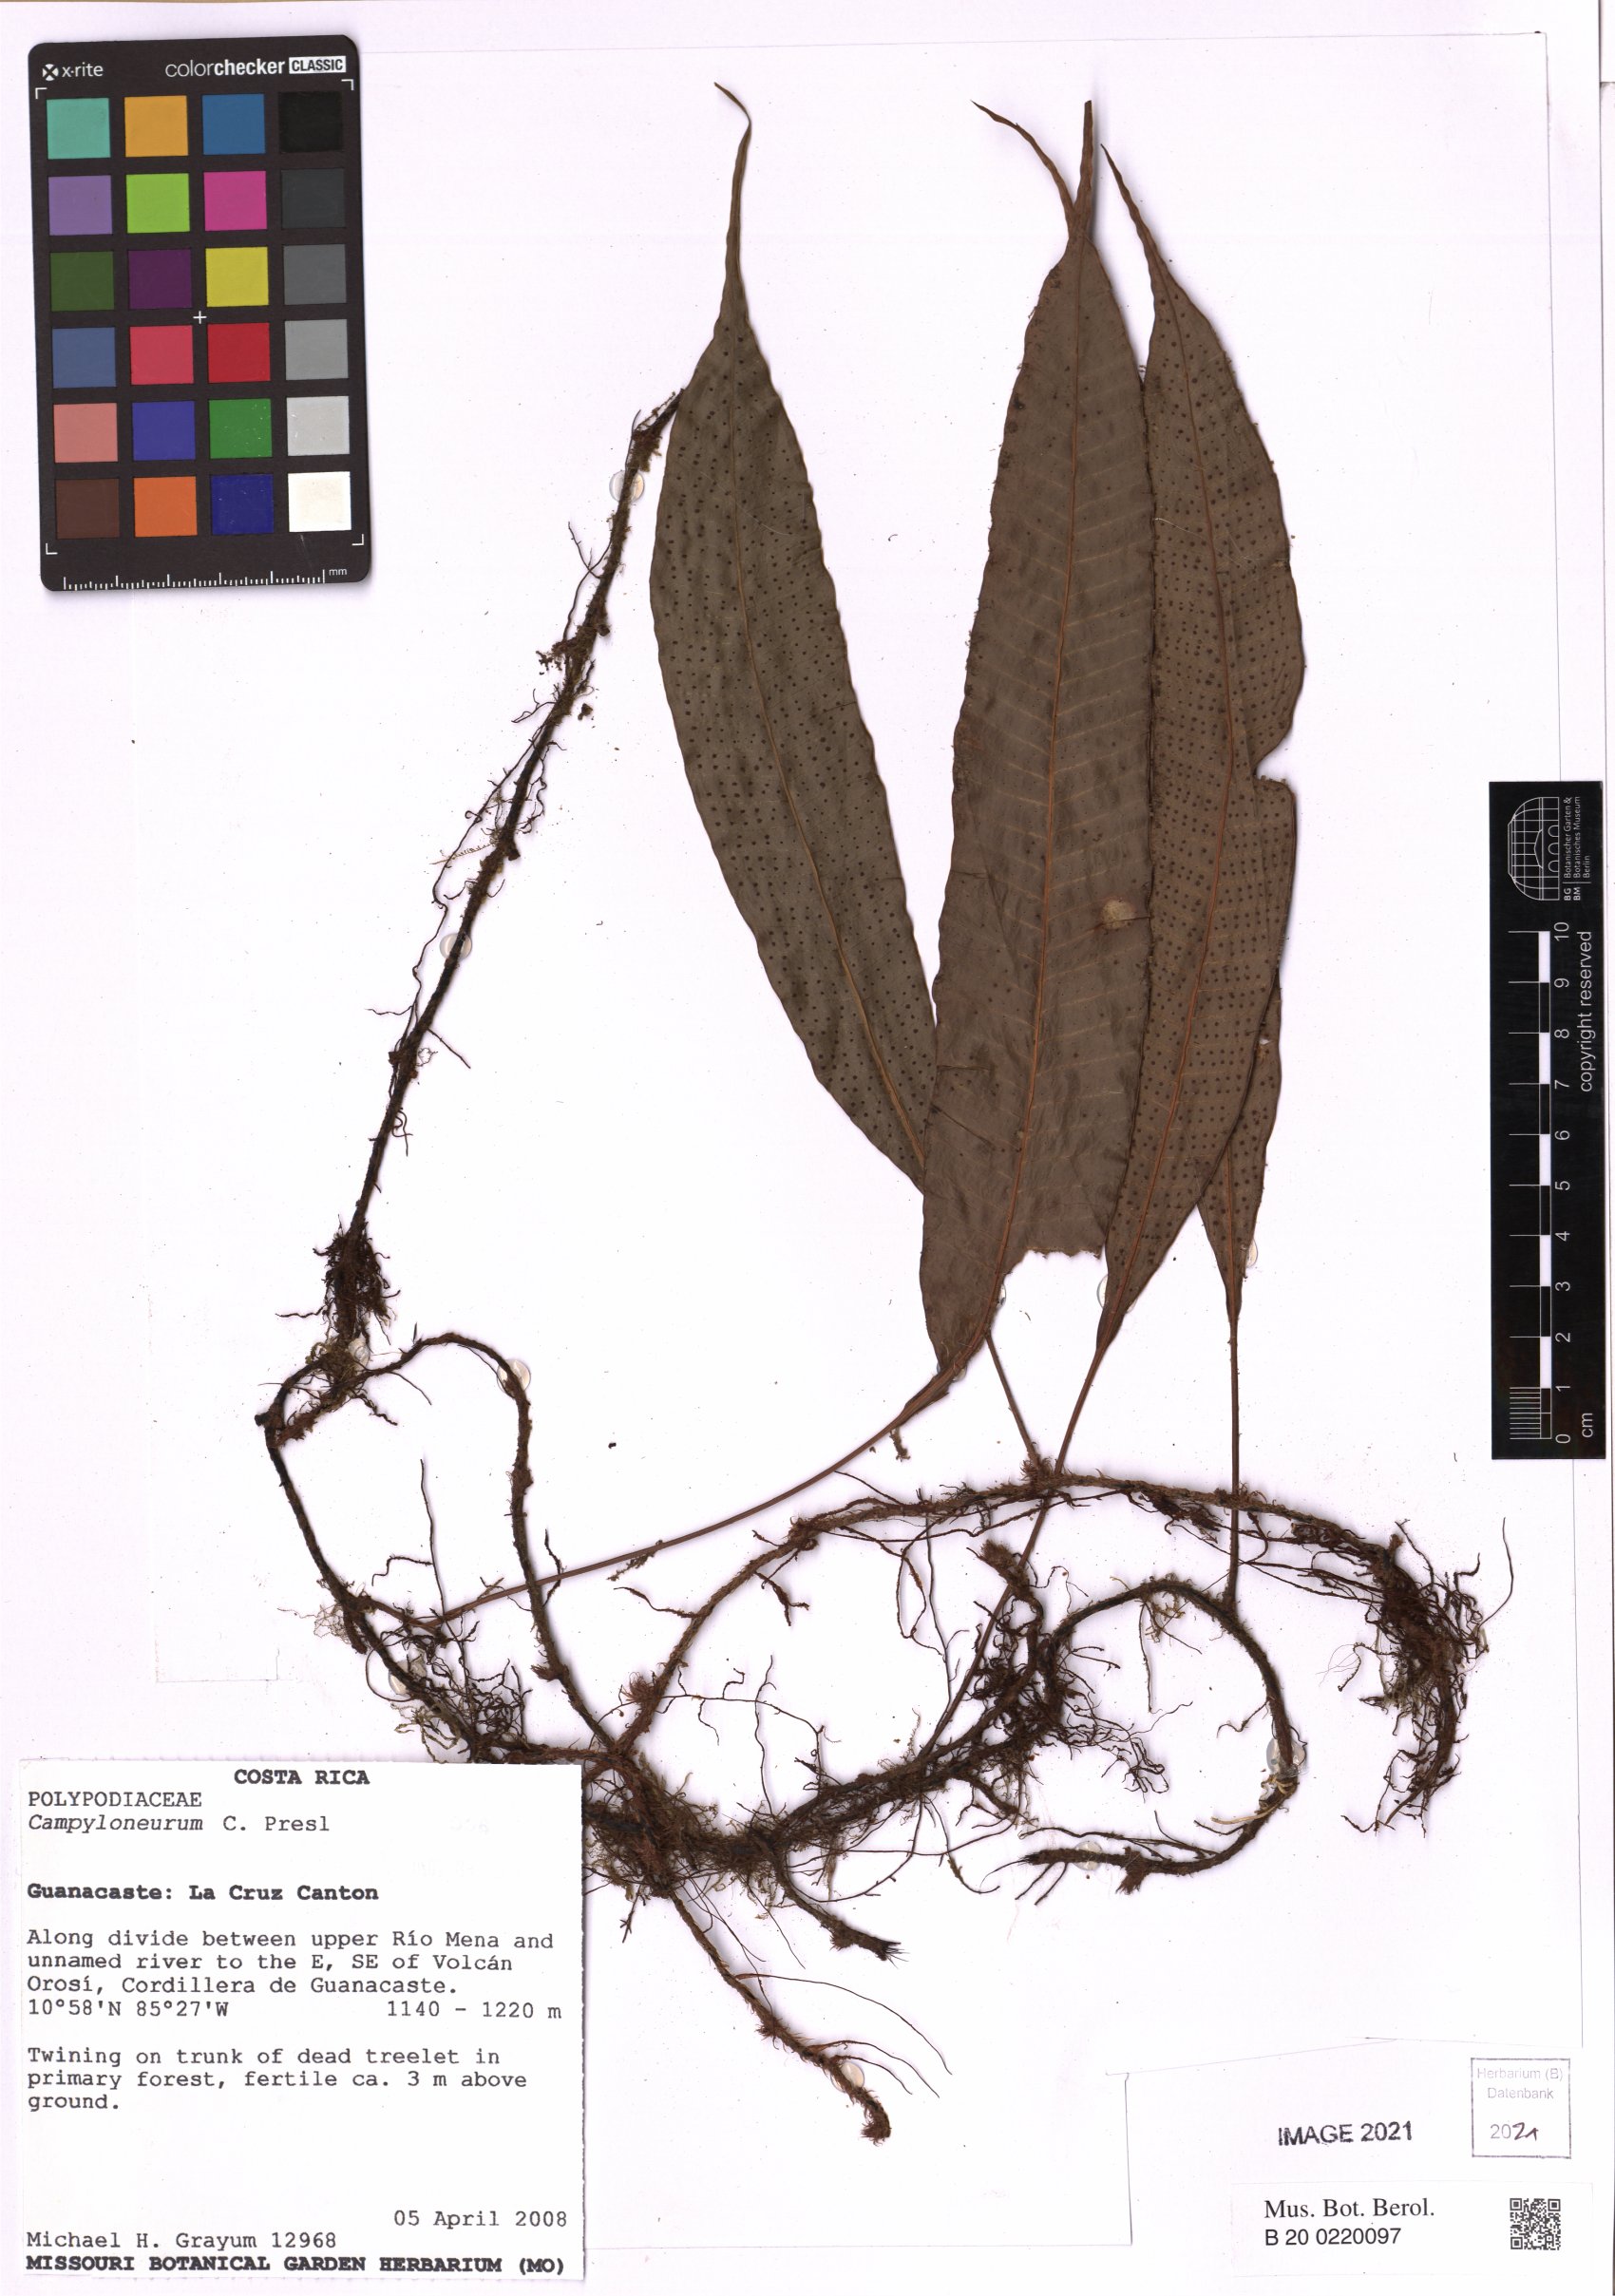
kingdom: Plantae
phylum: Tracheophyta
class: Polypodiopsida
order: Polypodiales
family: Polypodiaceae
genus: Campyloneurum
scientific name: Campyloneurum
